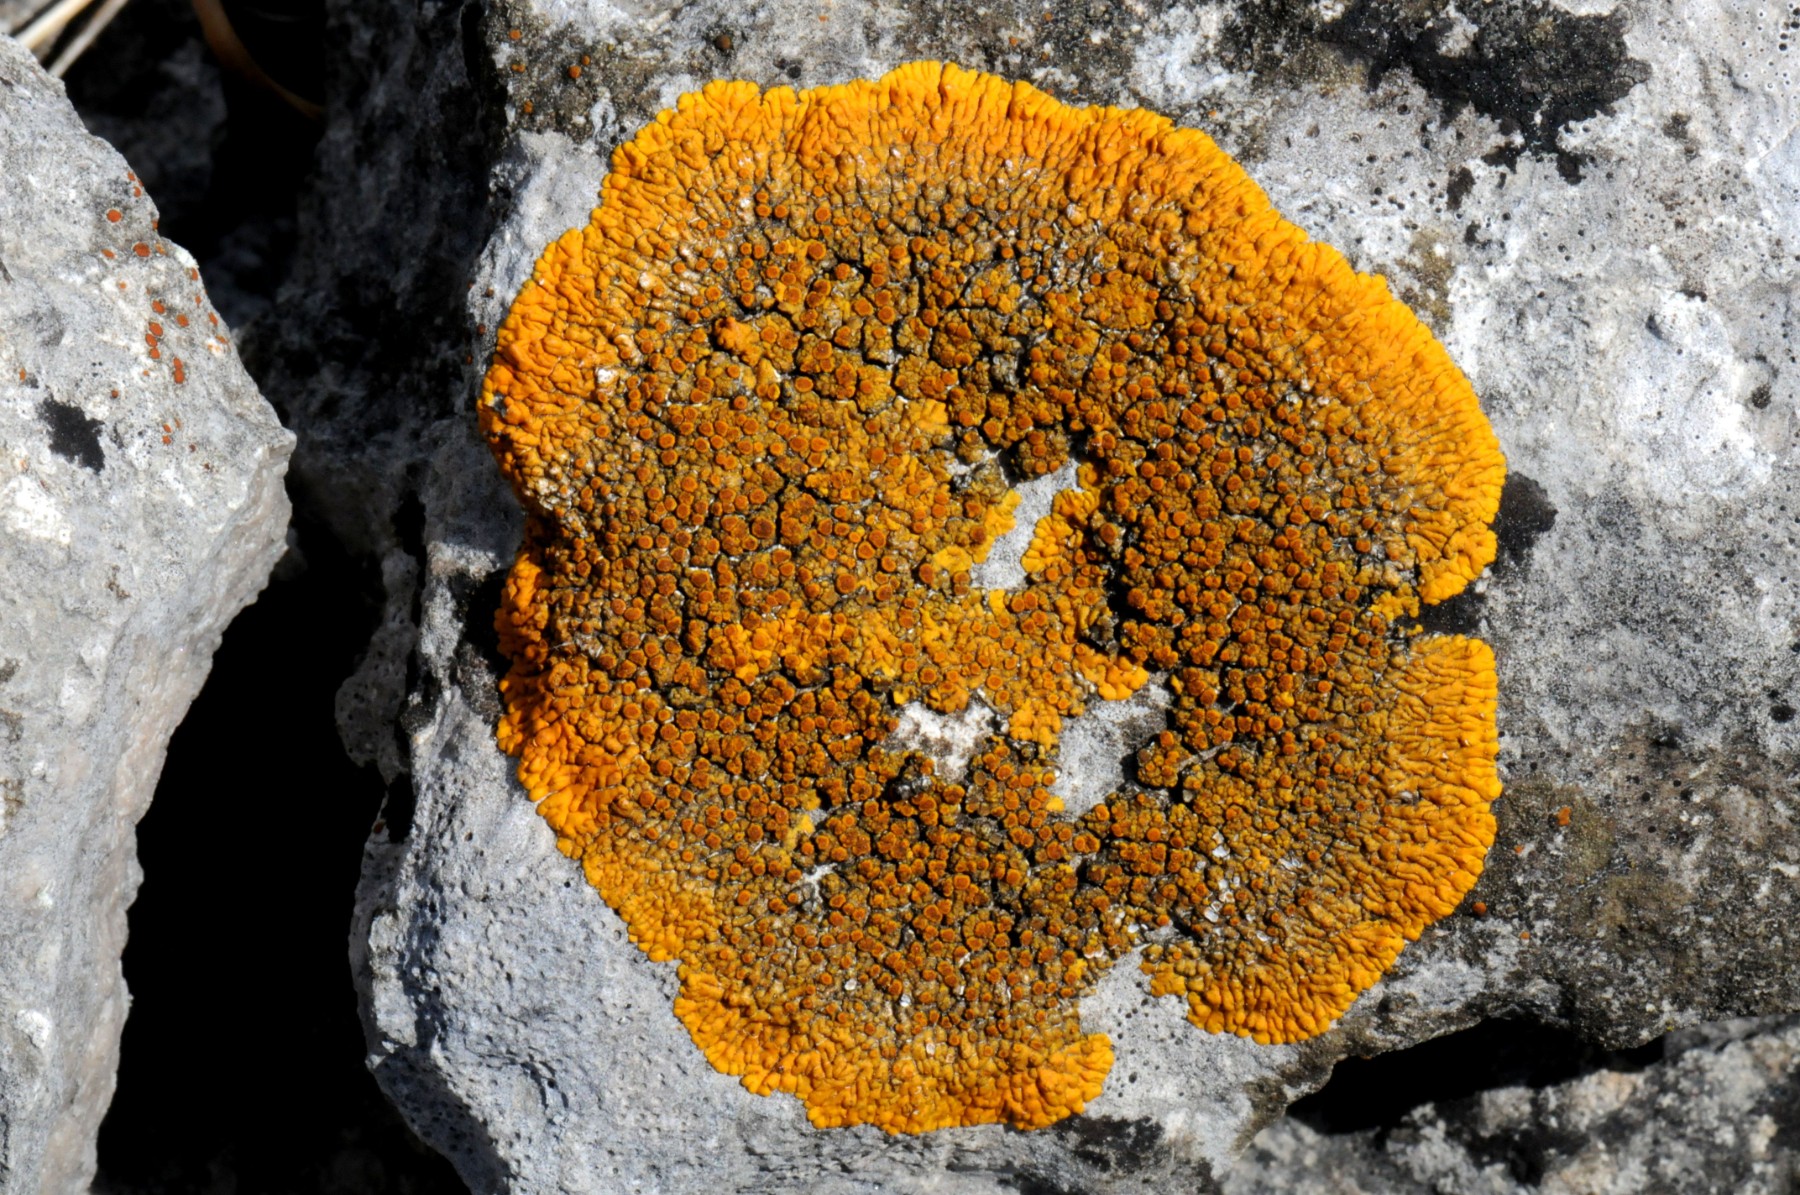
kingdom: Fungi
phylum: Ascomycota
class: Lecanoromycetes
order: Teloschistales
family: Teloschistaceae
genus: Variospora
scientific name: Variospora flavescens
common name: kalk-orangelav
